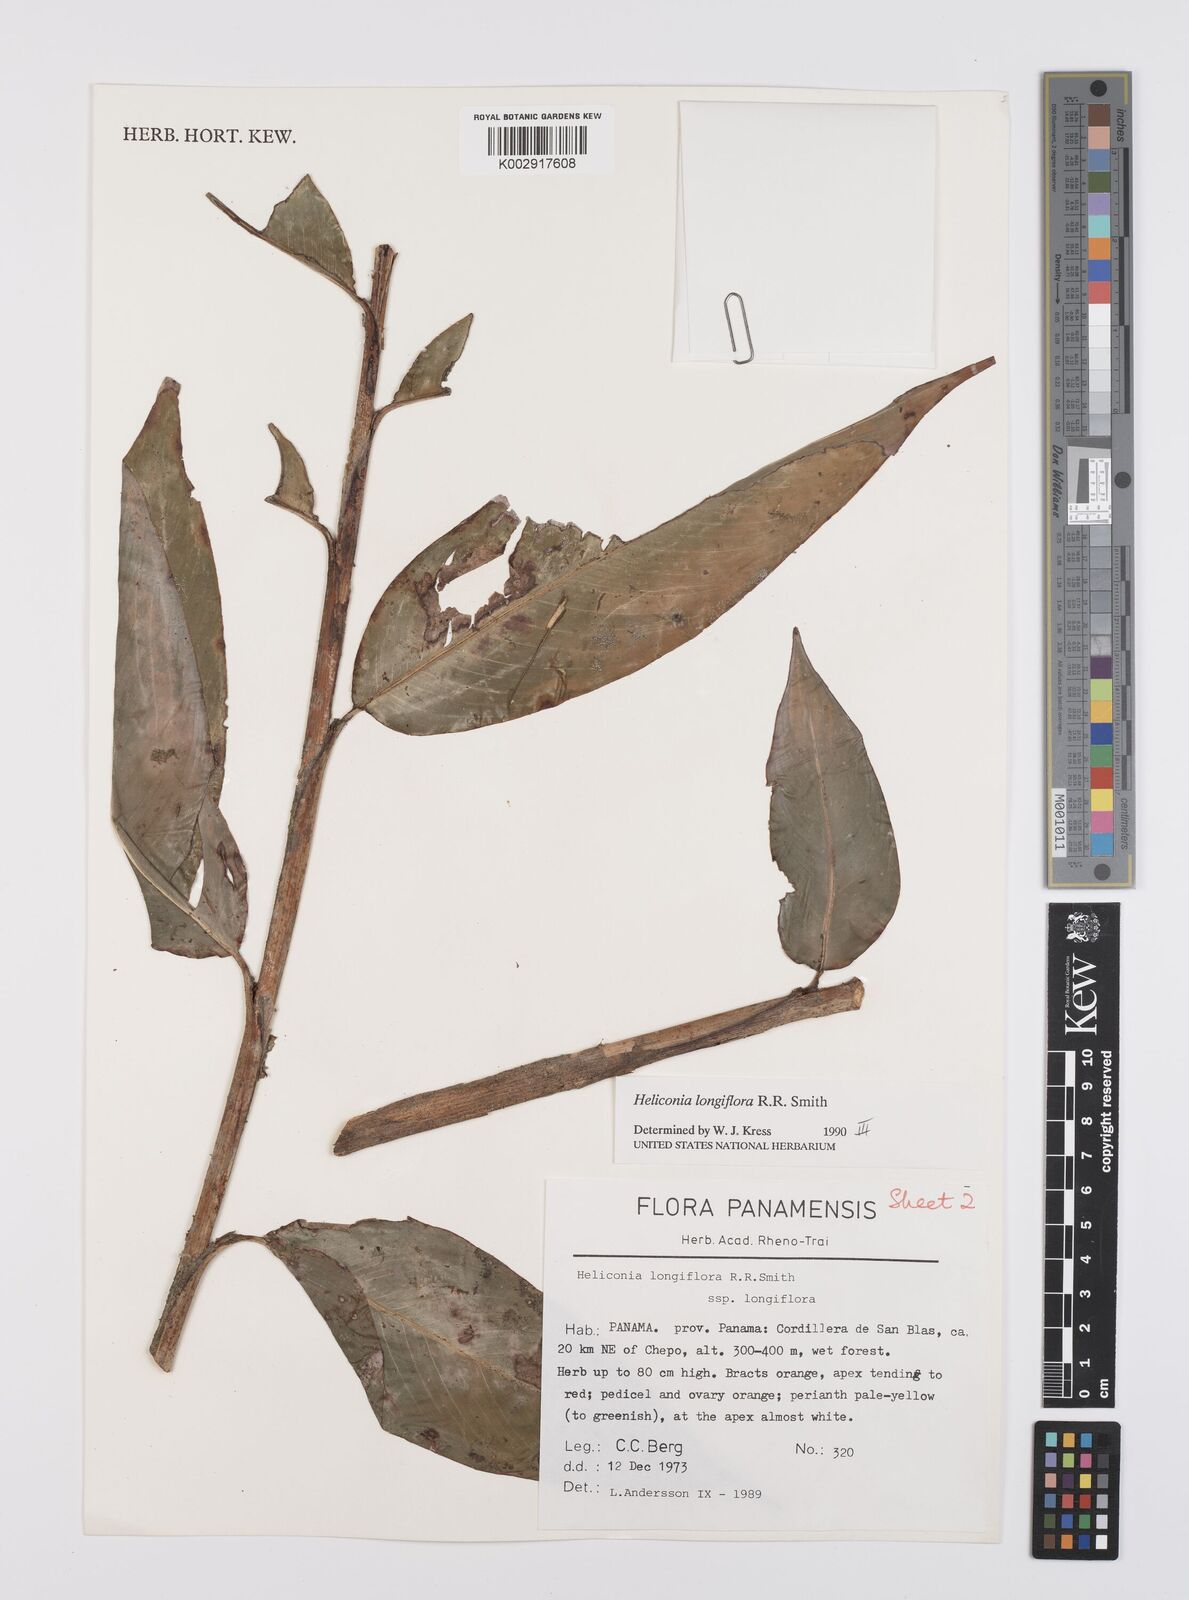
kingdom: Plantae
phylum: Tracheophyta
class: Liliopsida
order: Zingiberales
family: Heliconiaceae
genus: Heliconia
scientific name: Heliconia longiflora
